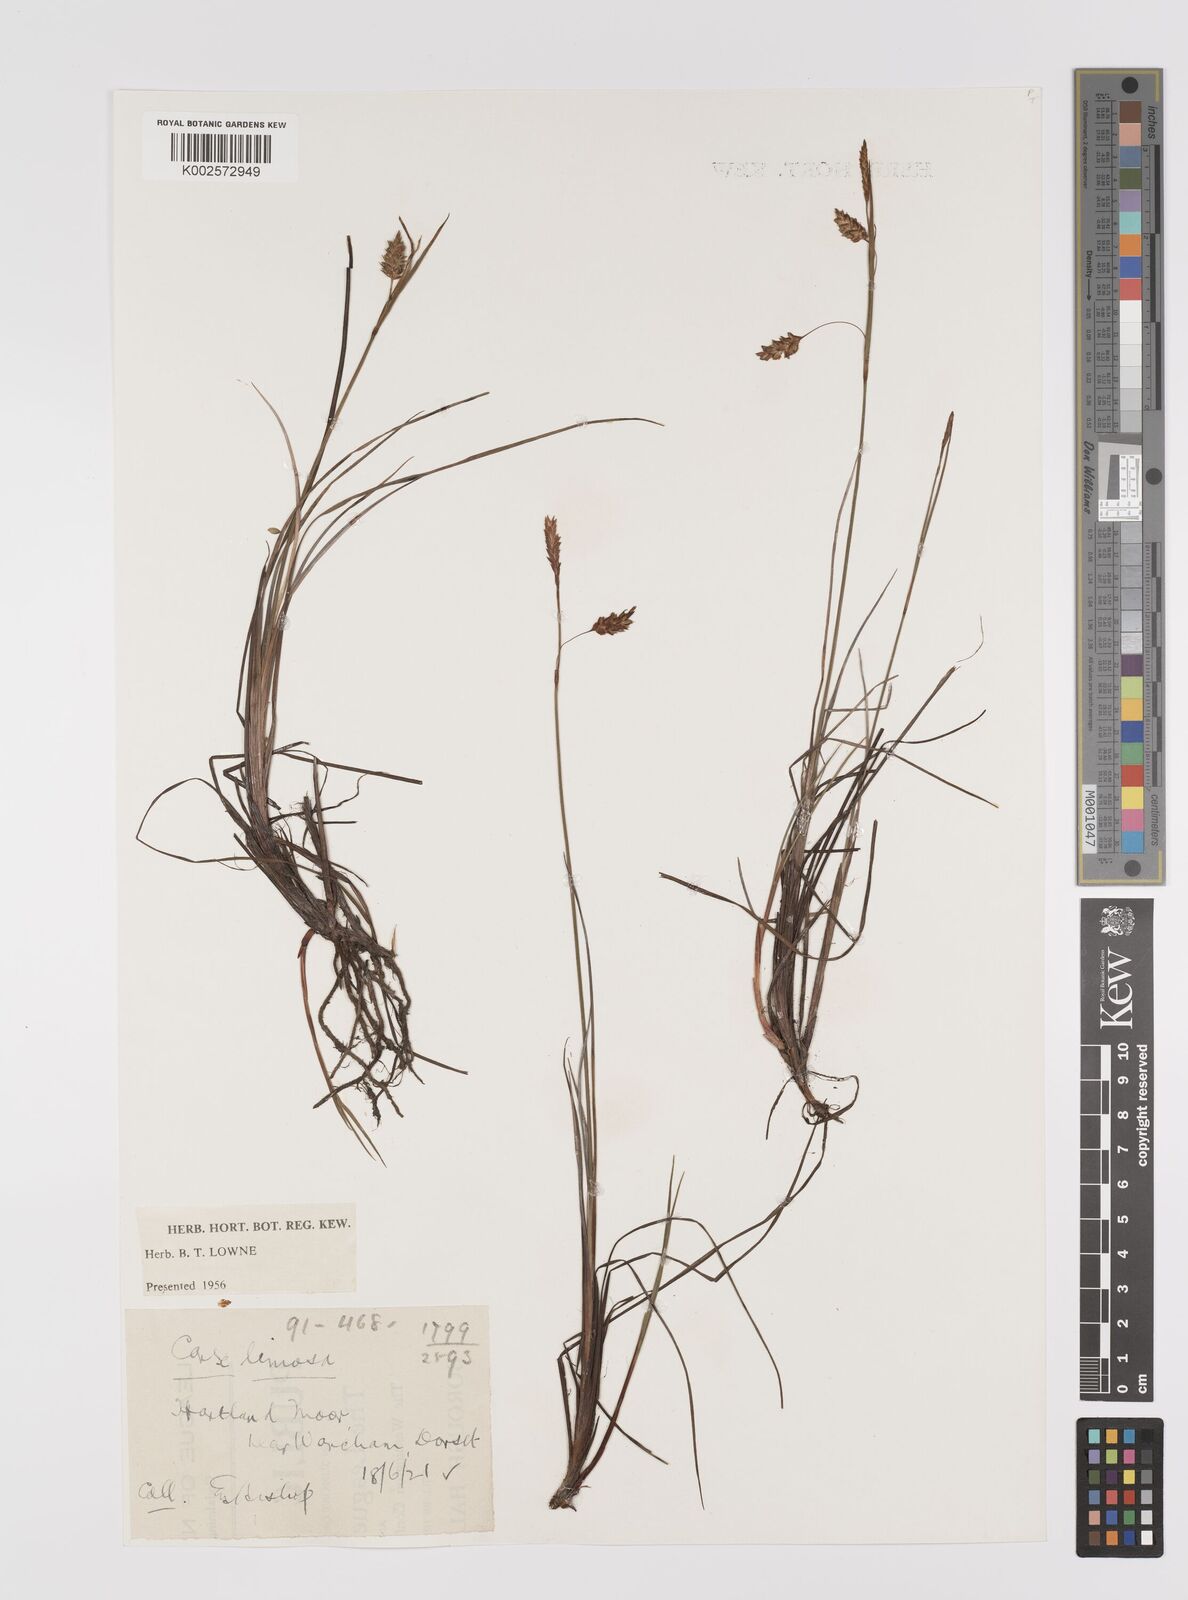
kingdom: Plantae
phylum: Tracheophyta
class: Liliopsida
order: Poales
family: Cyperaceae
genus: Carex
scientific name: Carex limosa
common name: Bog sedge
